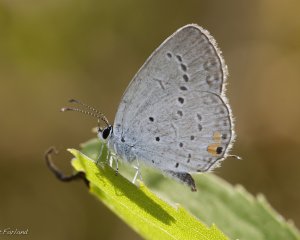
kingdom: Animalia
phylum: Arthropoda
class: Insecta
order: Lepidoptera
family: Lycaenidae
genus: Elkalyce
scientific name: Elkalyce comyntas
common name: Eastern Tailed-Blue
